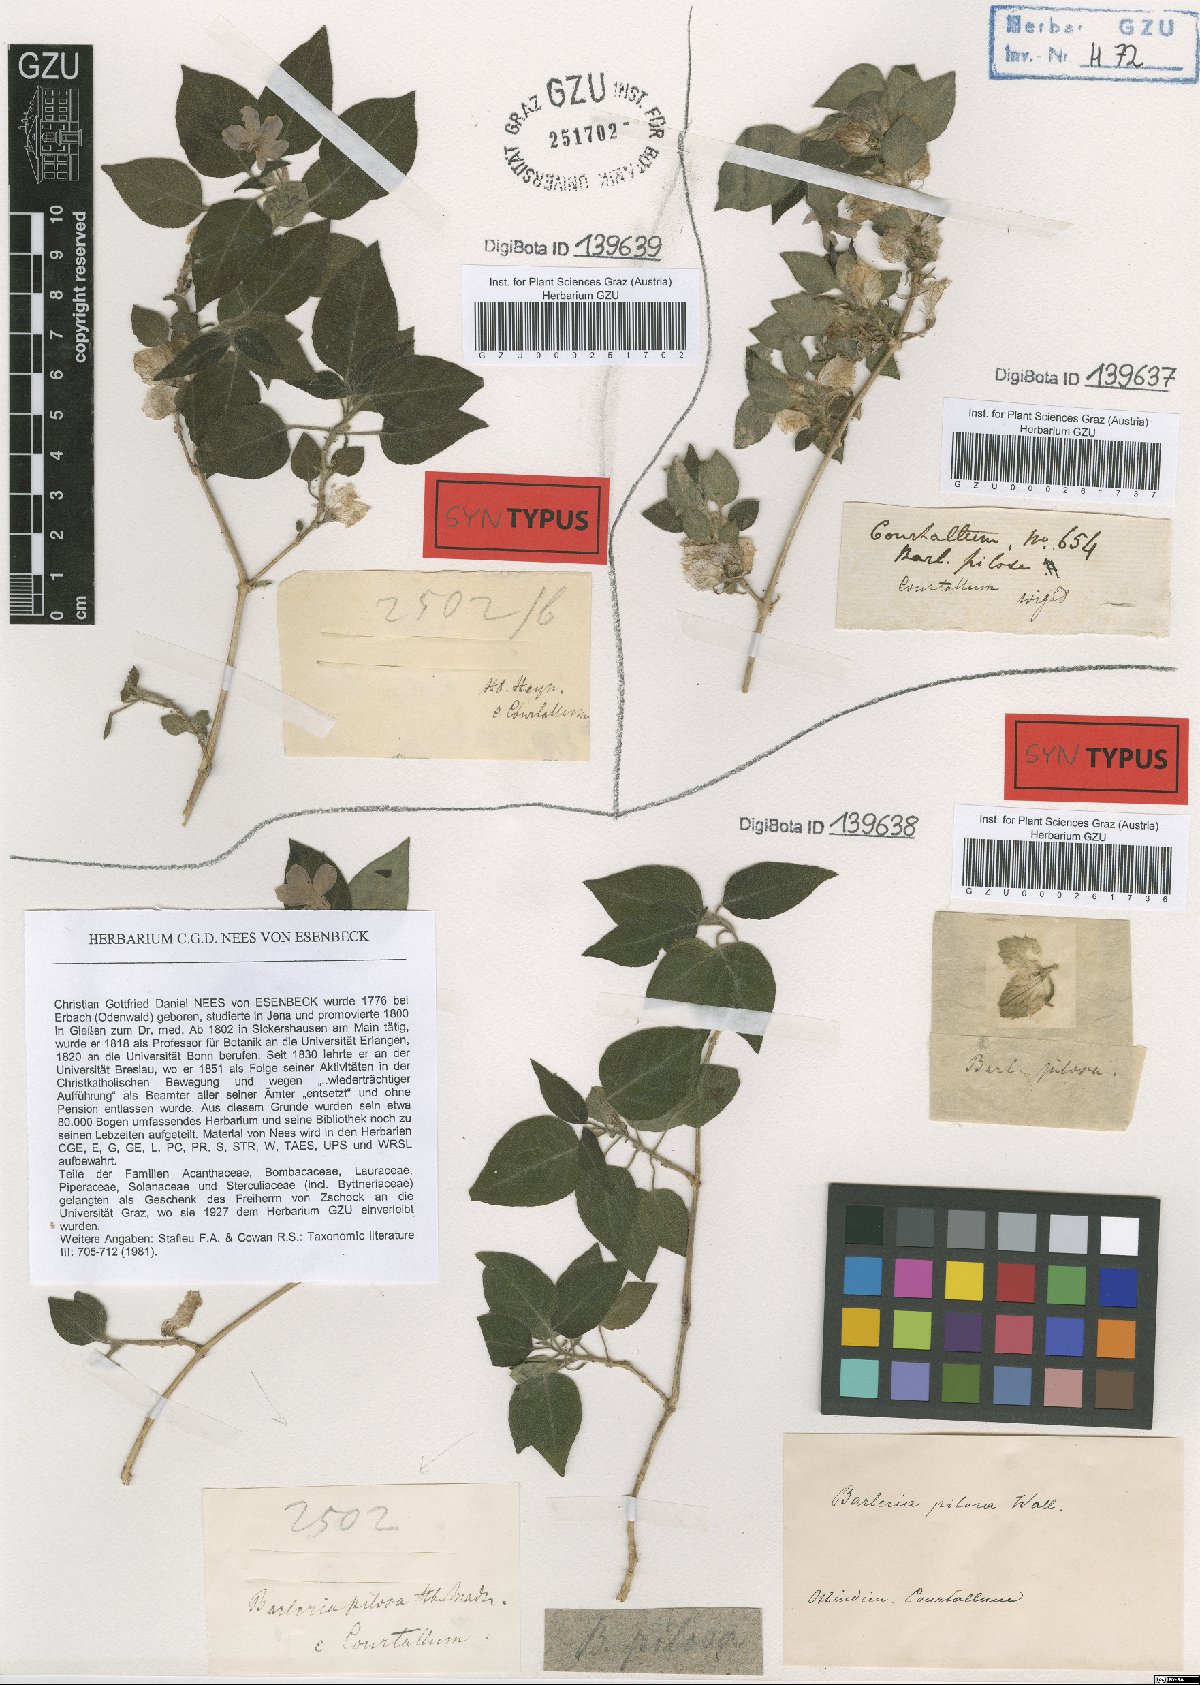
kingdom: Plantae
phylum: Tracheophyta
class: Magnoliopsida
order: Lamiales
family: Acanthaceae
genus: Barleria
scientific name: Barleria pilosa
